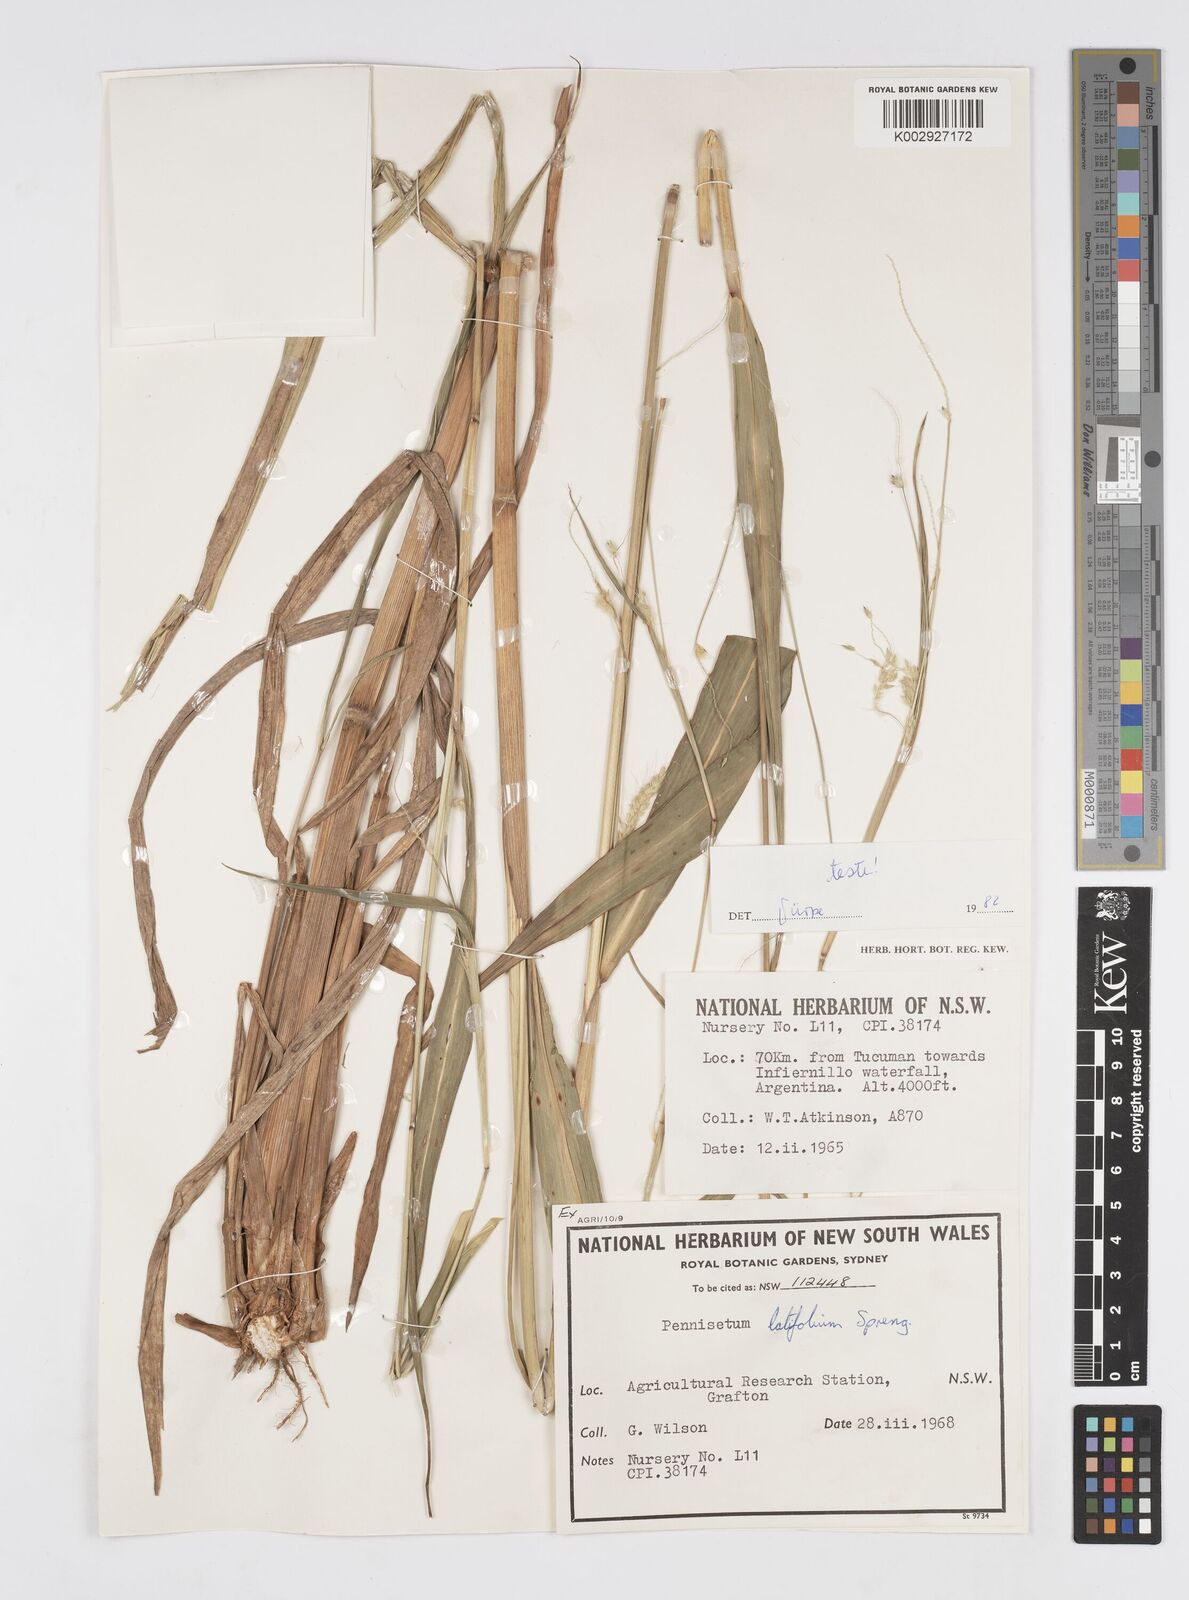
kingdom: Plantae
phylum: Tracheophyta
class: Liliopsida
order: Poales
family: Poaceae
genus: Cenchrus
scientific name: Cenchrus latifolius
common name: Sandbur
